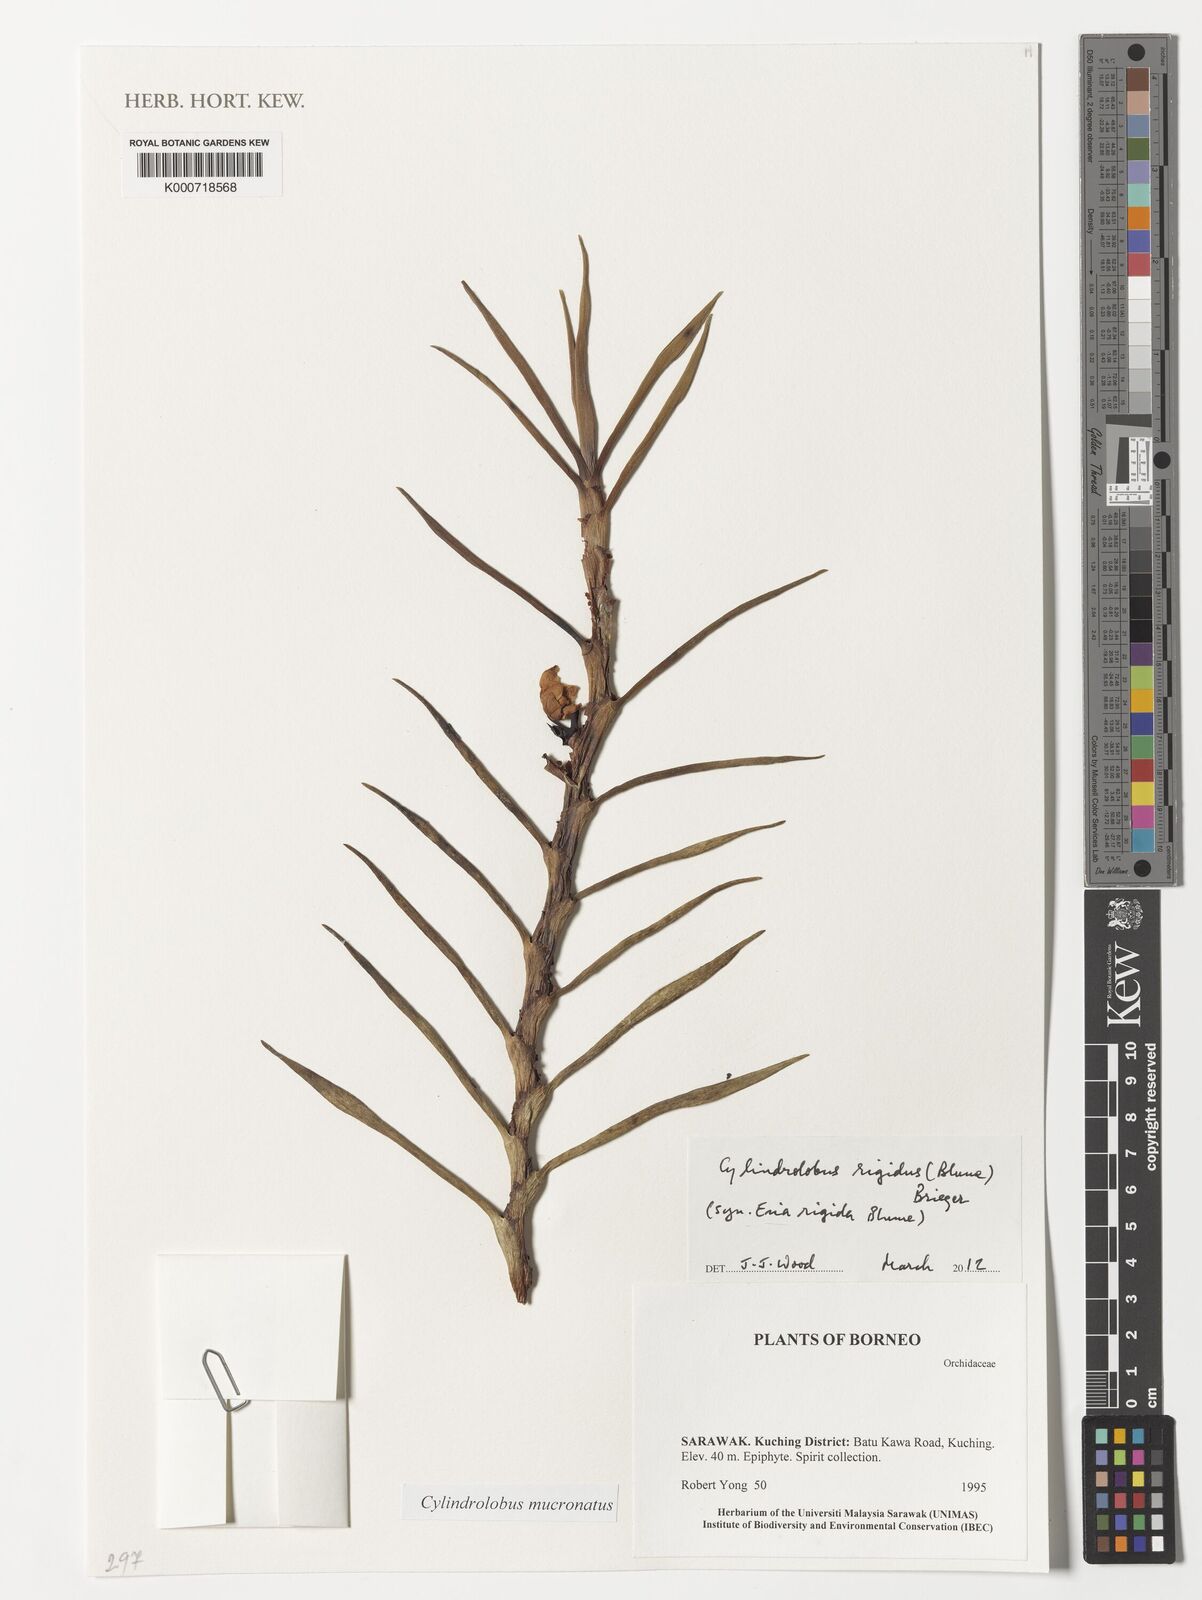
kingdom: Plantae
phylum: Tracheophyta
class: Liliopsida
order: Asparagales
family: Orchidaceae
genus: Cylindrolobus
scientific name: Cylindrolobus mucronatus
